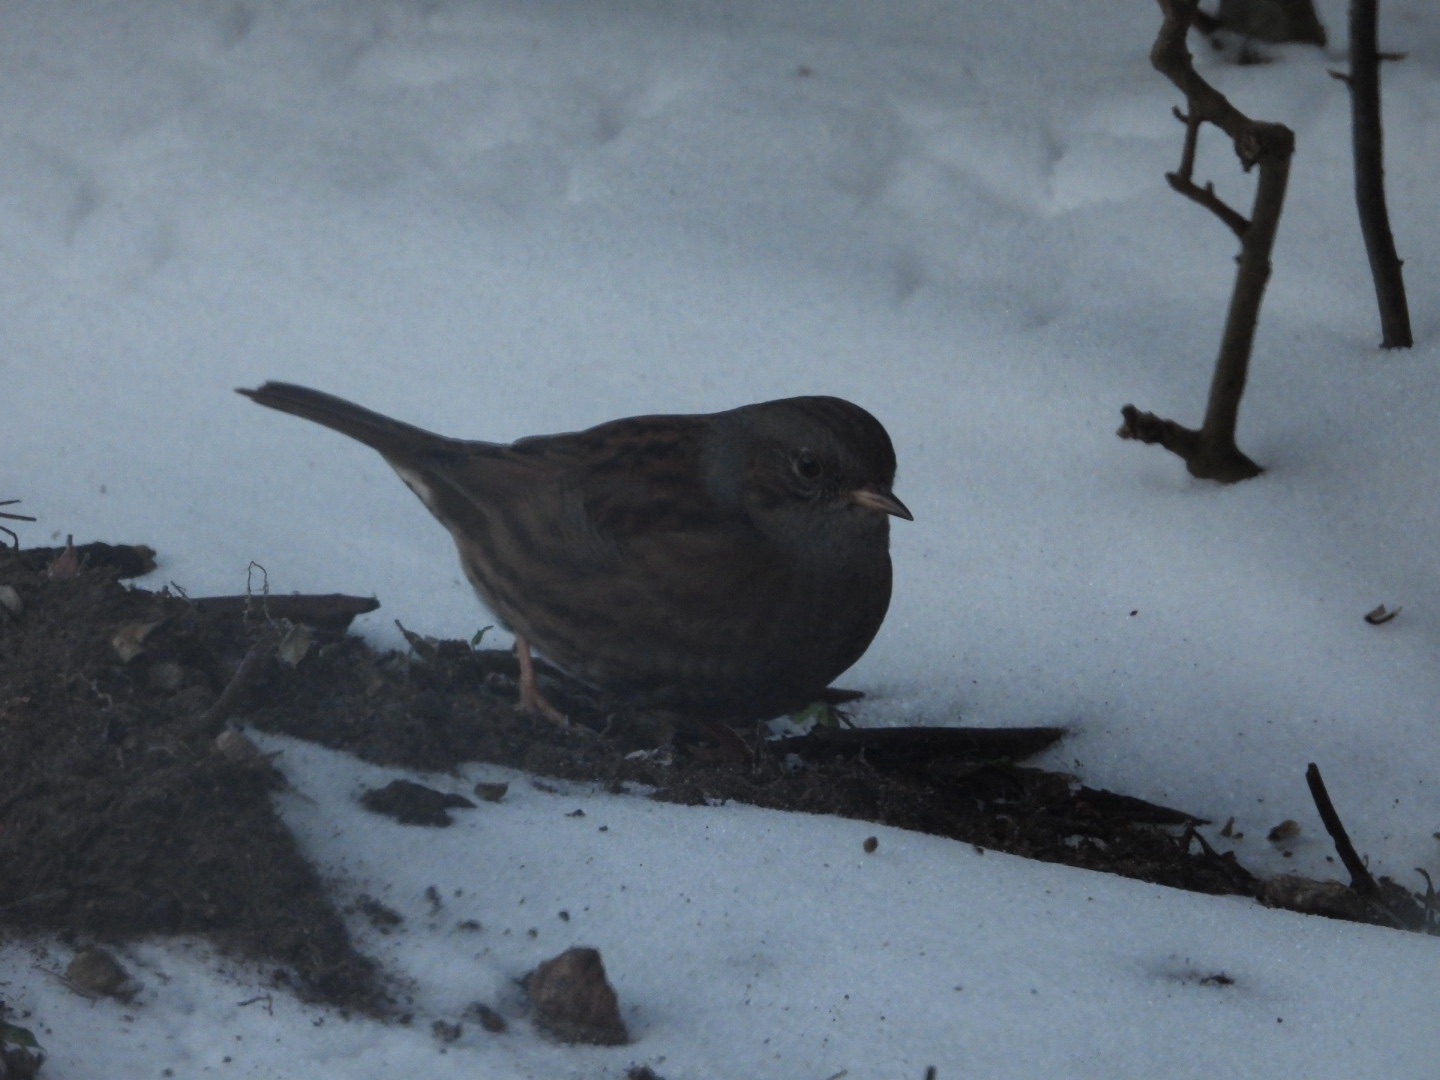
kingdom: Animalia
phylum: Chordata
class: Aves
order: Passeriformes
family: Prunellidae
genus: Prunella
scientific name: Prunella modularis
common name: Jernspurv
